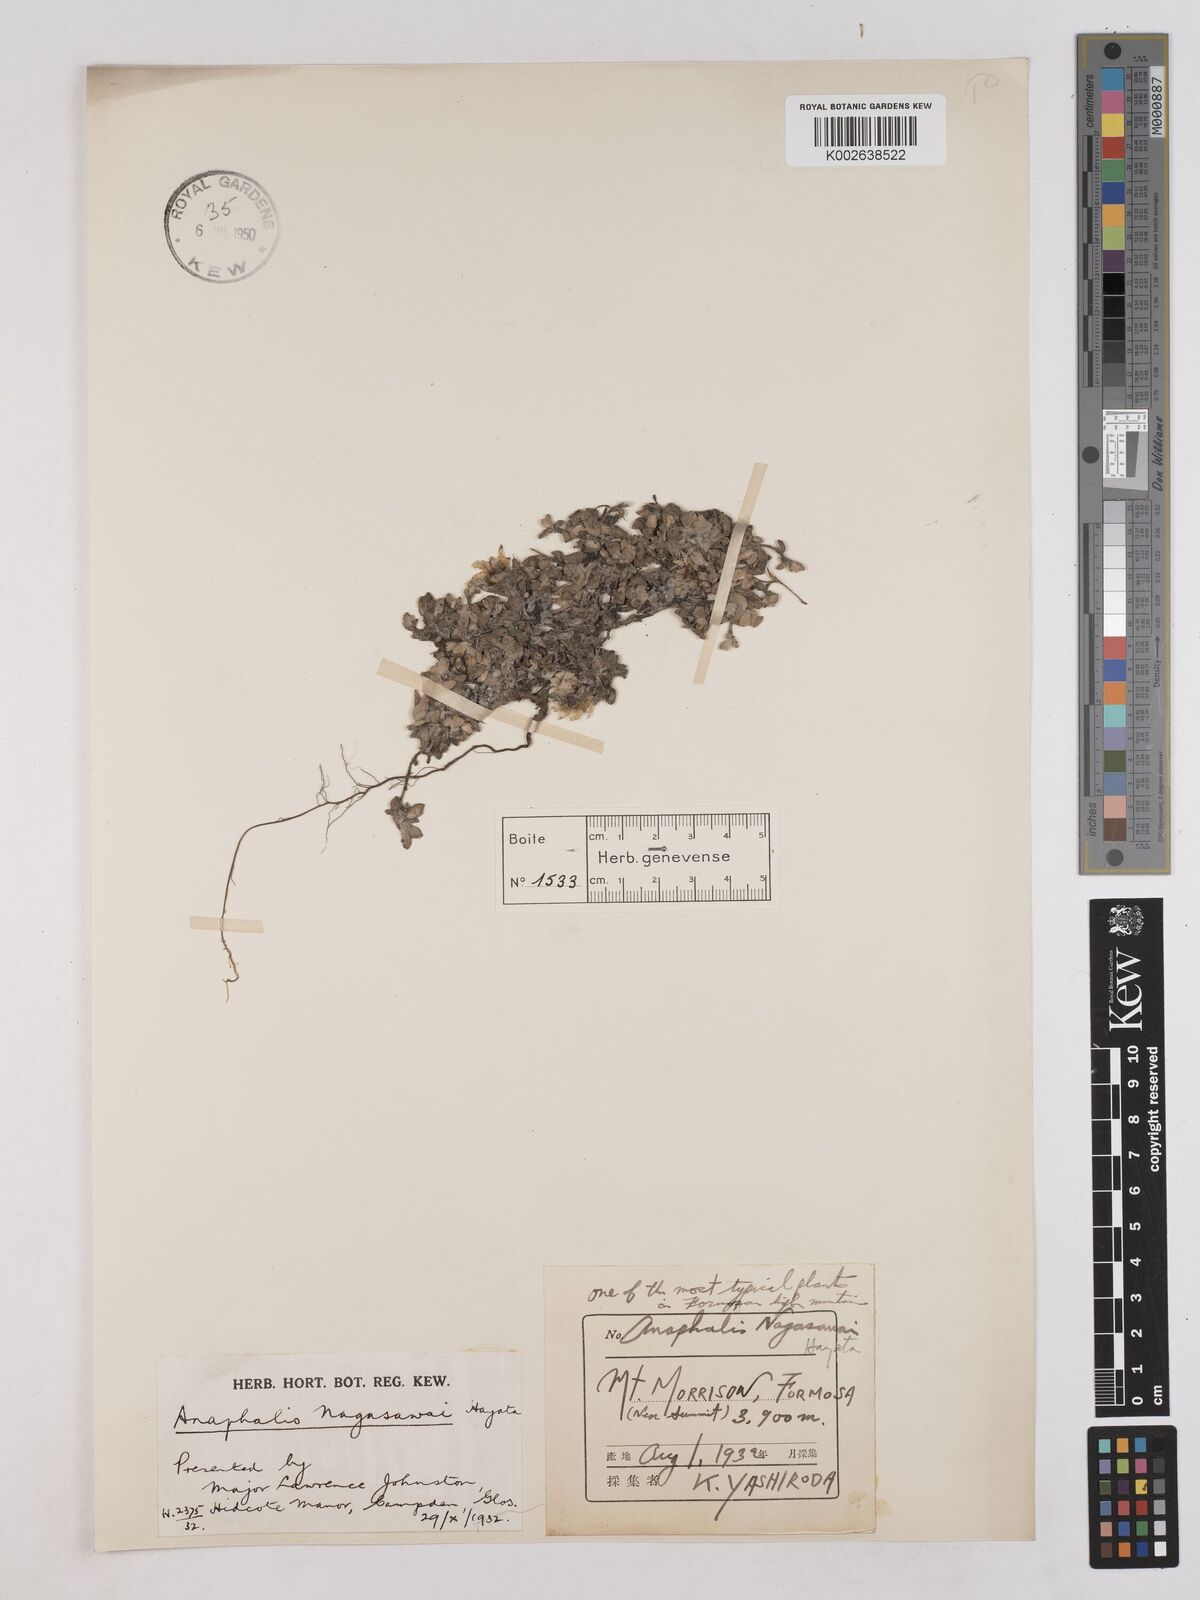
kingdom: Plantae
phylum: Tracheophyta
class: Magnoliopsida
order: Asterales
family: Asteraceae
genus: Anaphalis
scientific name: Anaphalis nagasawae
